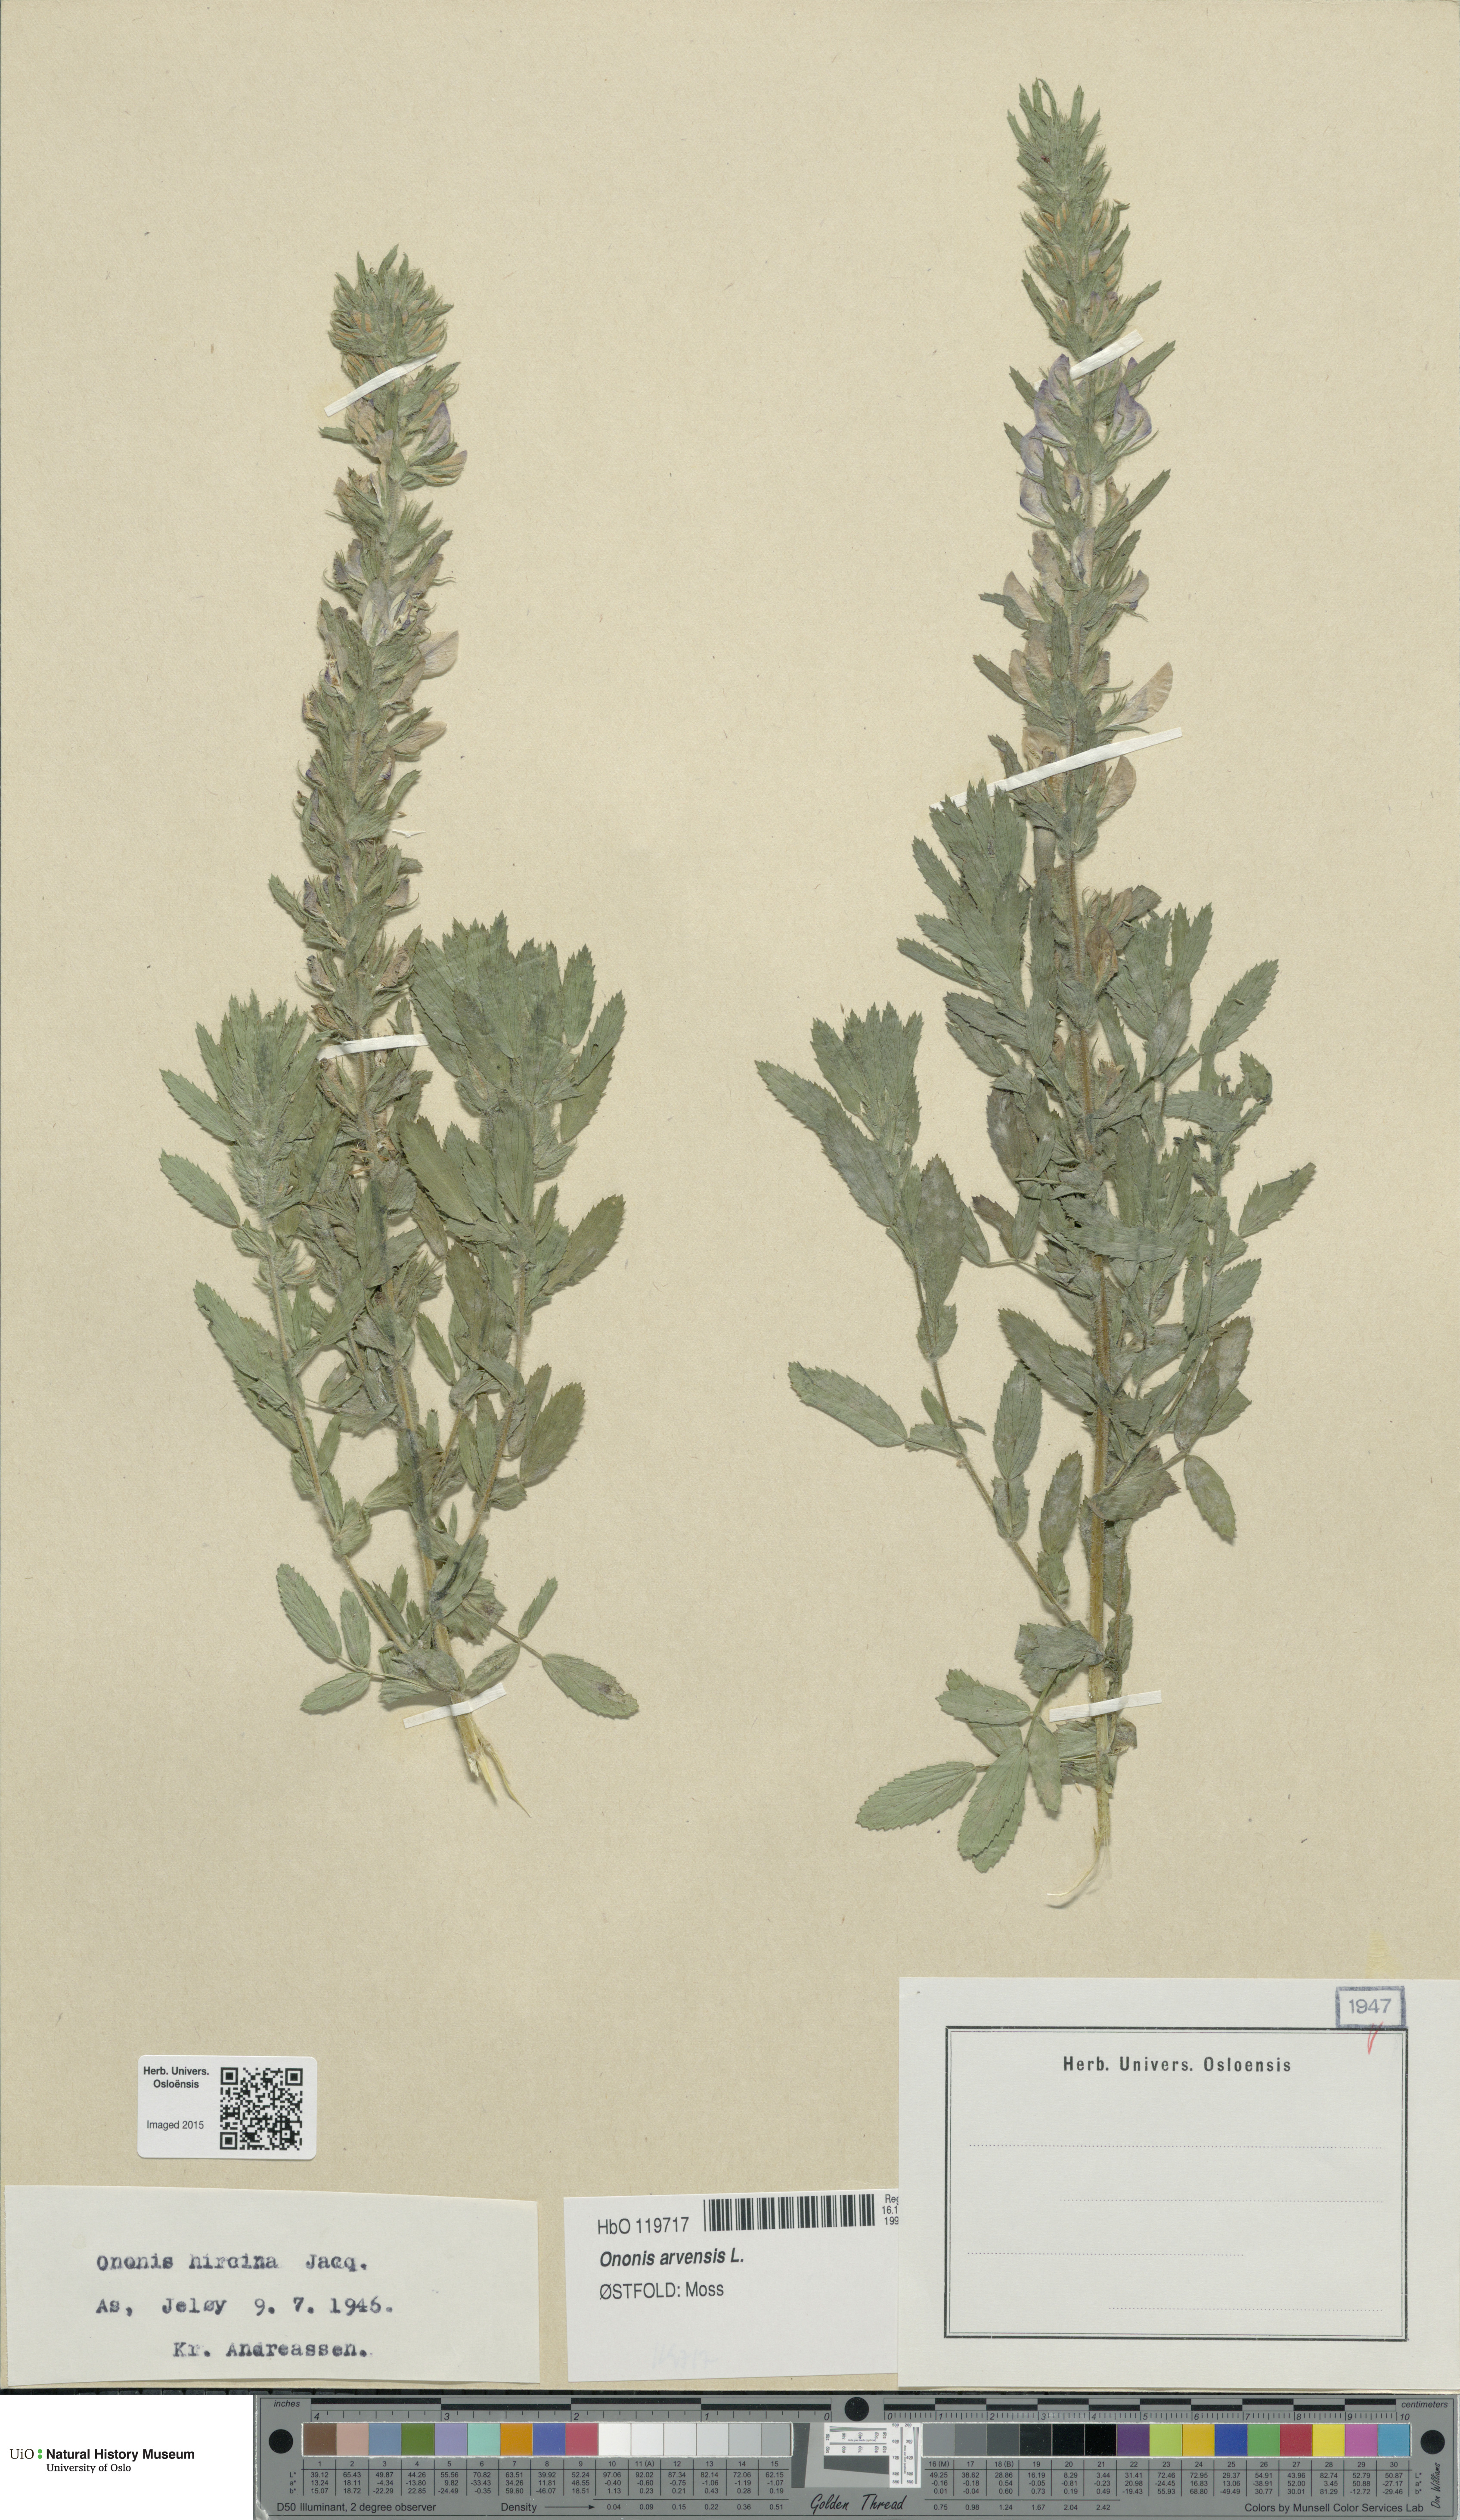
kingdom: Plantae
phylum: Tracheophyta
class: Magnoliopsida
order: Fabales
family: Fabaceae
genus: Ononis
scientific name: Ononis arvensis
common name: Field restharrow
